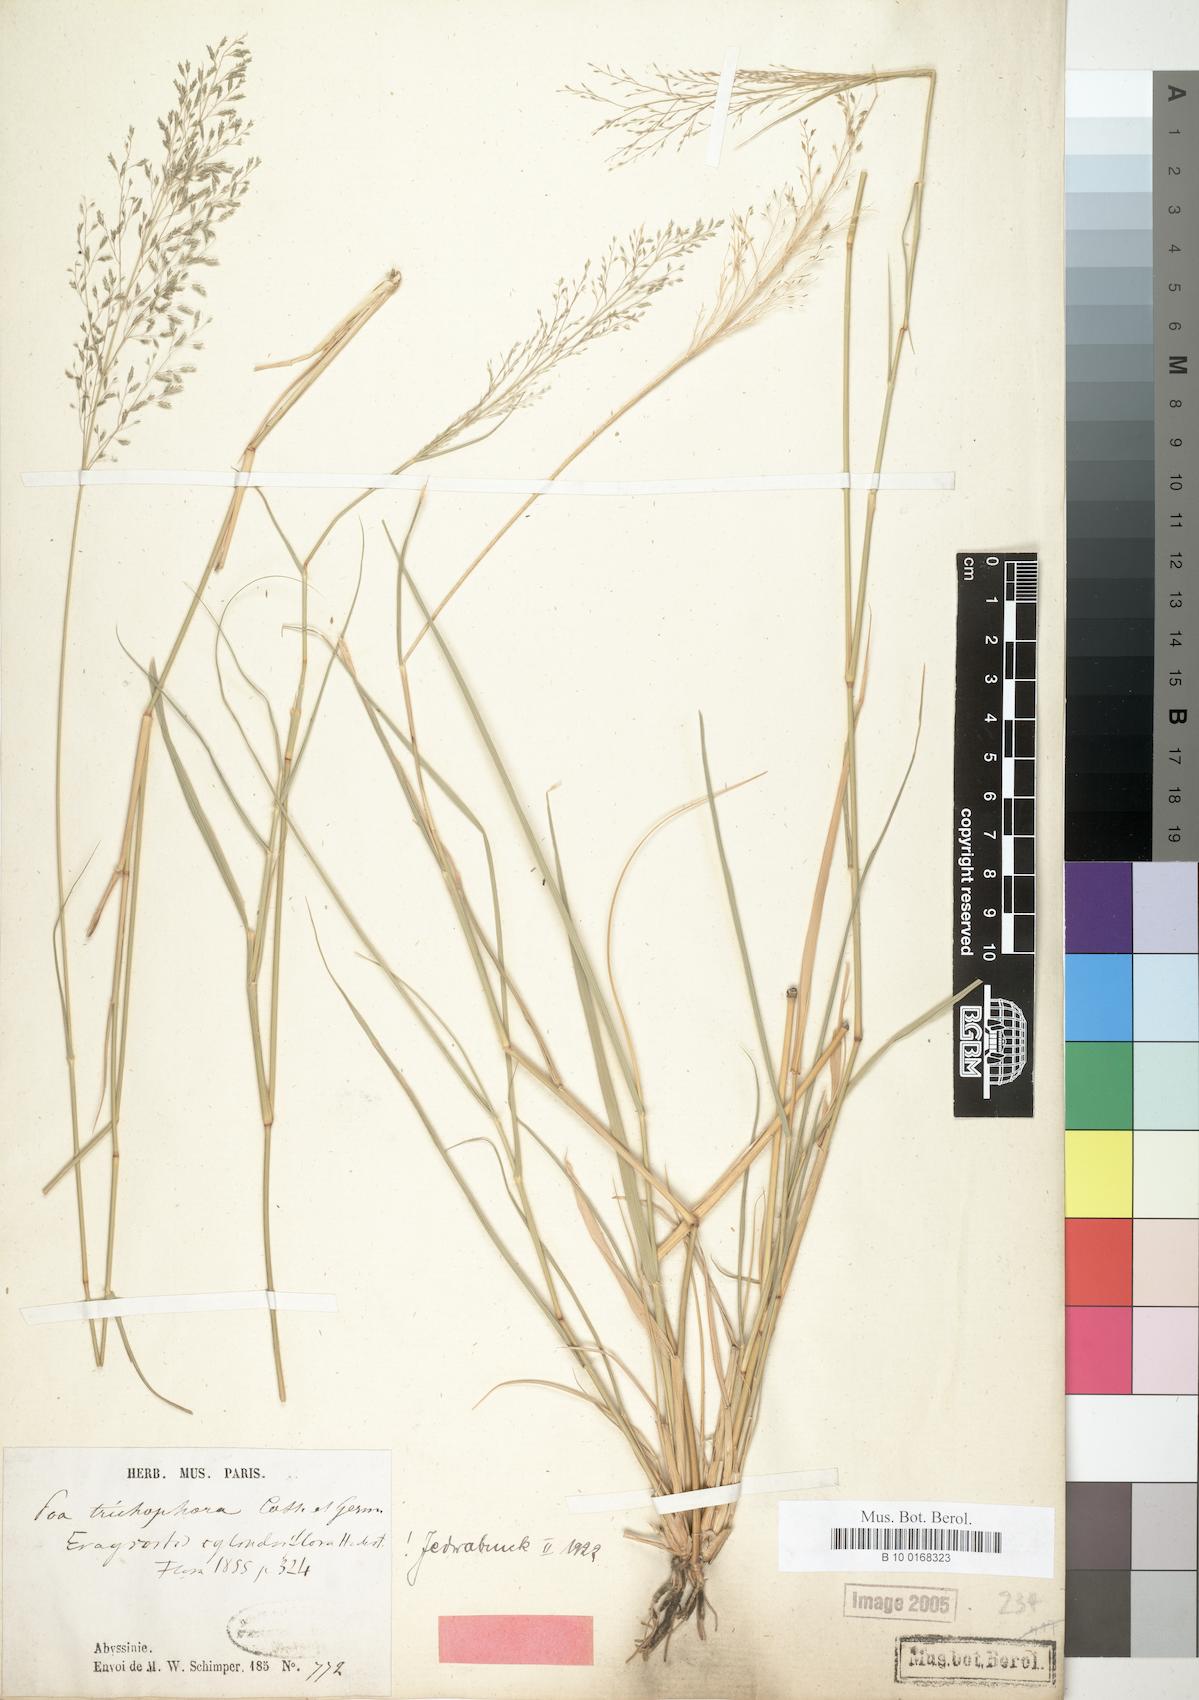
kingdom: Plantae
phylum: Tracheophyta
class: Liliopsida
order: Poales
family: Poaceae
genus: Eragrostis
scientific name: Eragrostis cylindriflora
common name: Cylinderflower lovegrass
